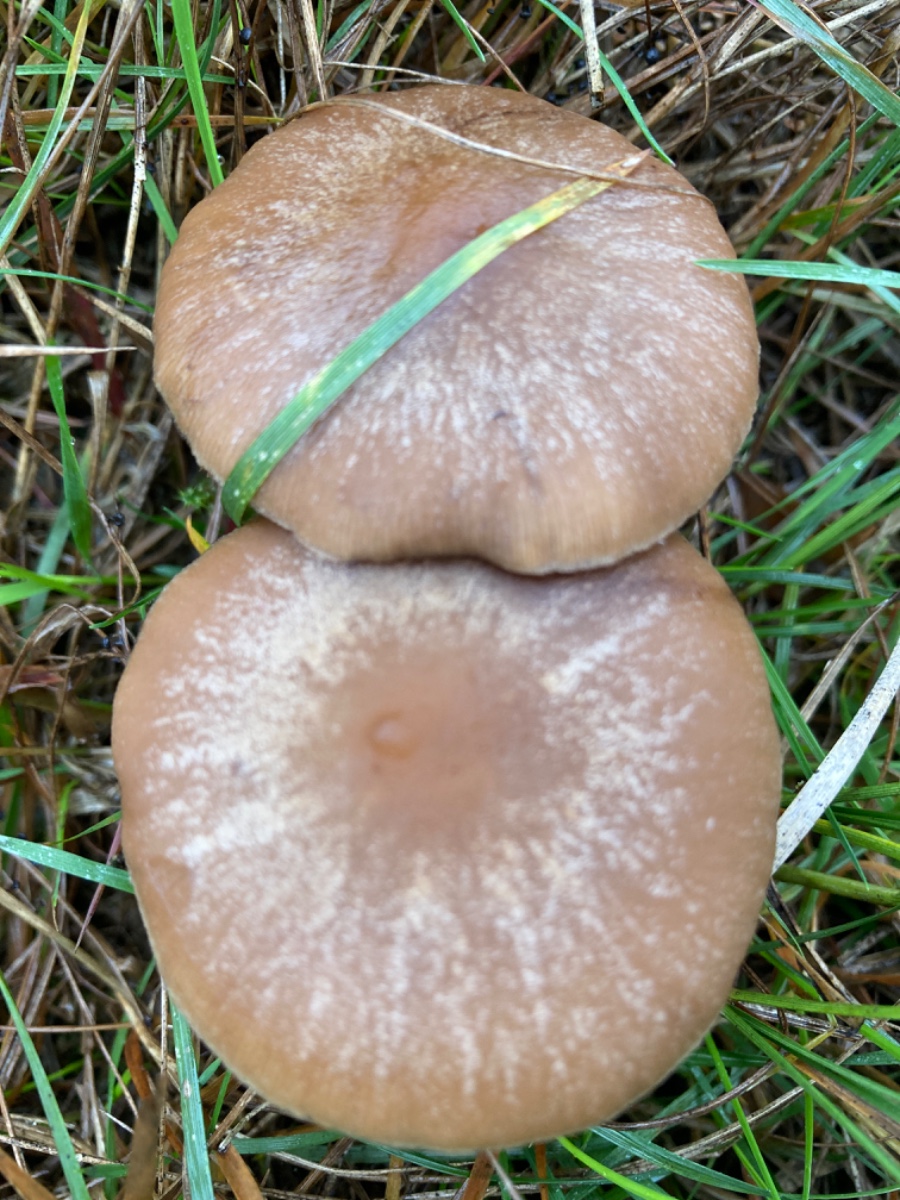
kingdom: Fungi
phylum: Basidiomycota
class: Agaricomycetes
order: Agaricales
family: Psathyrellaceae
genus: Psathyrella
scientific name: Psathyrella
